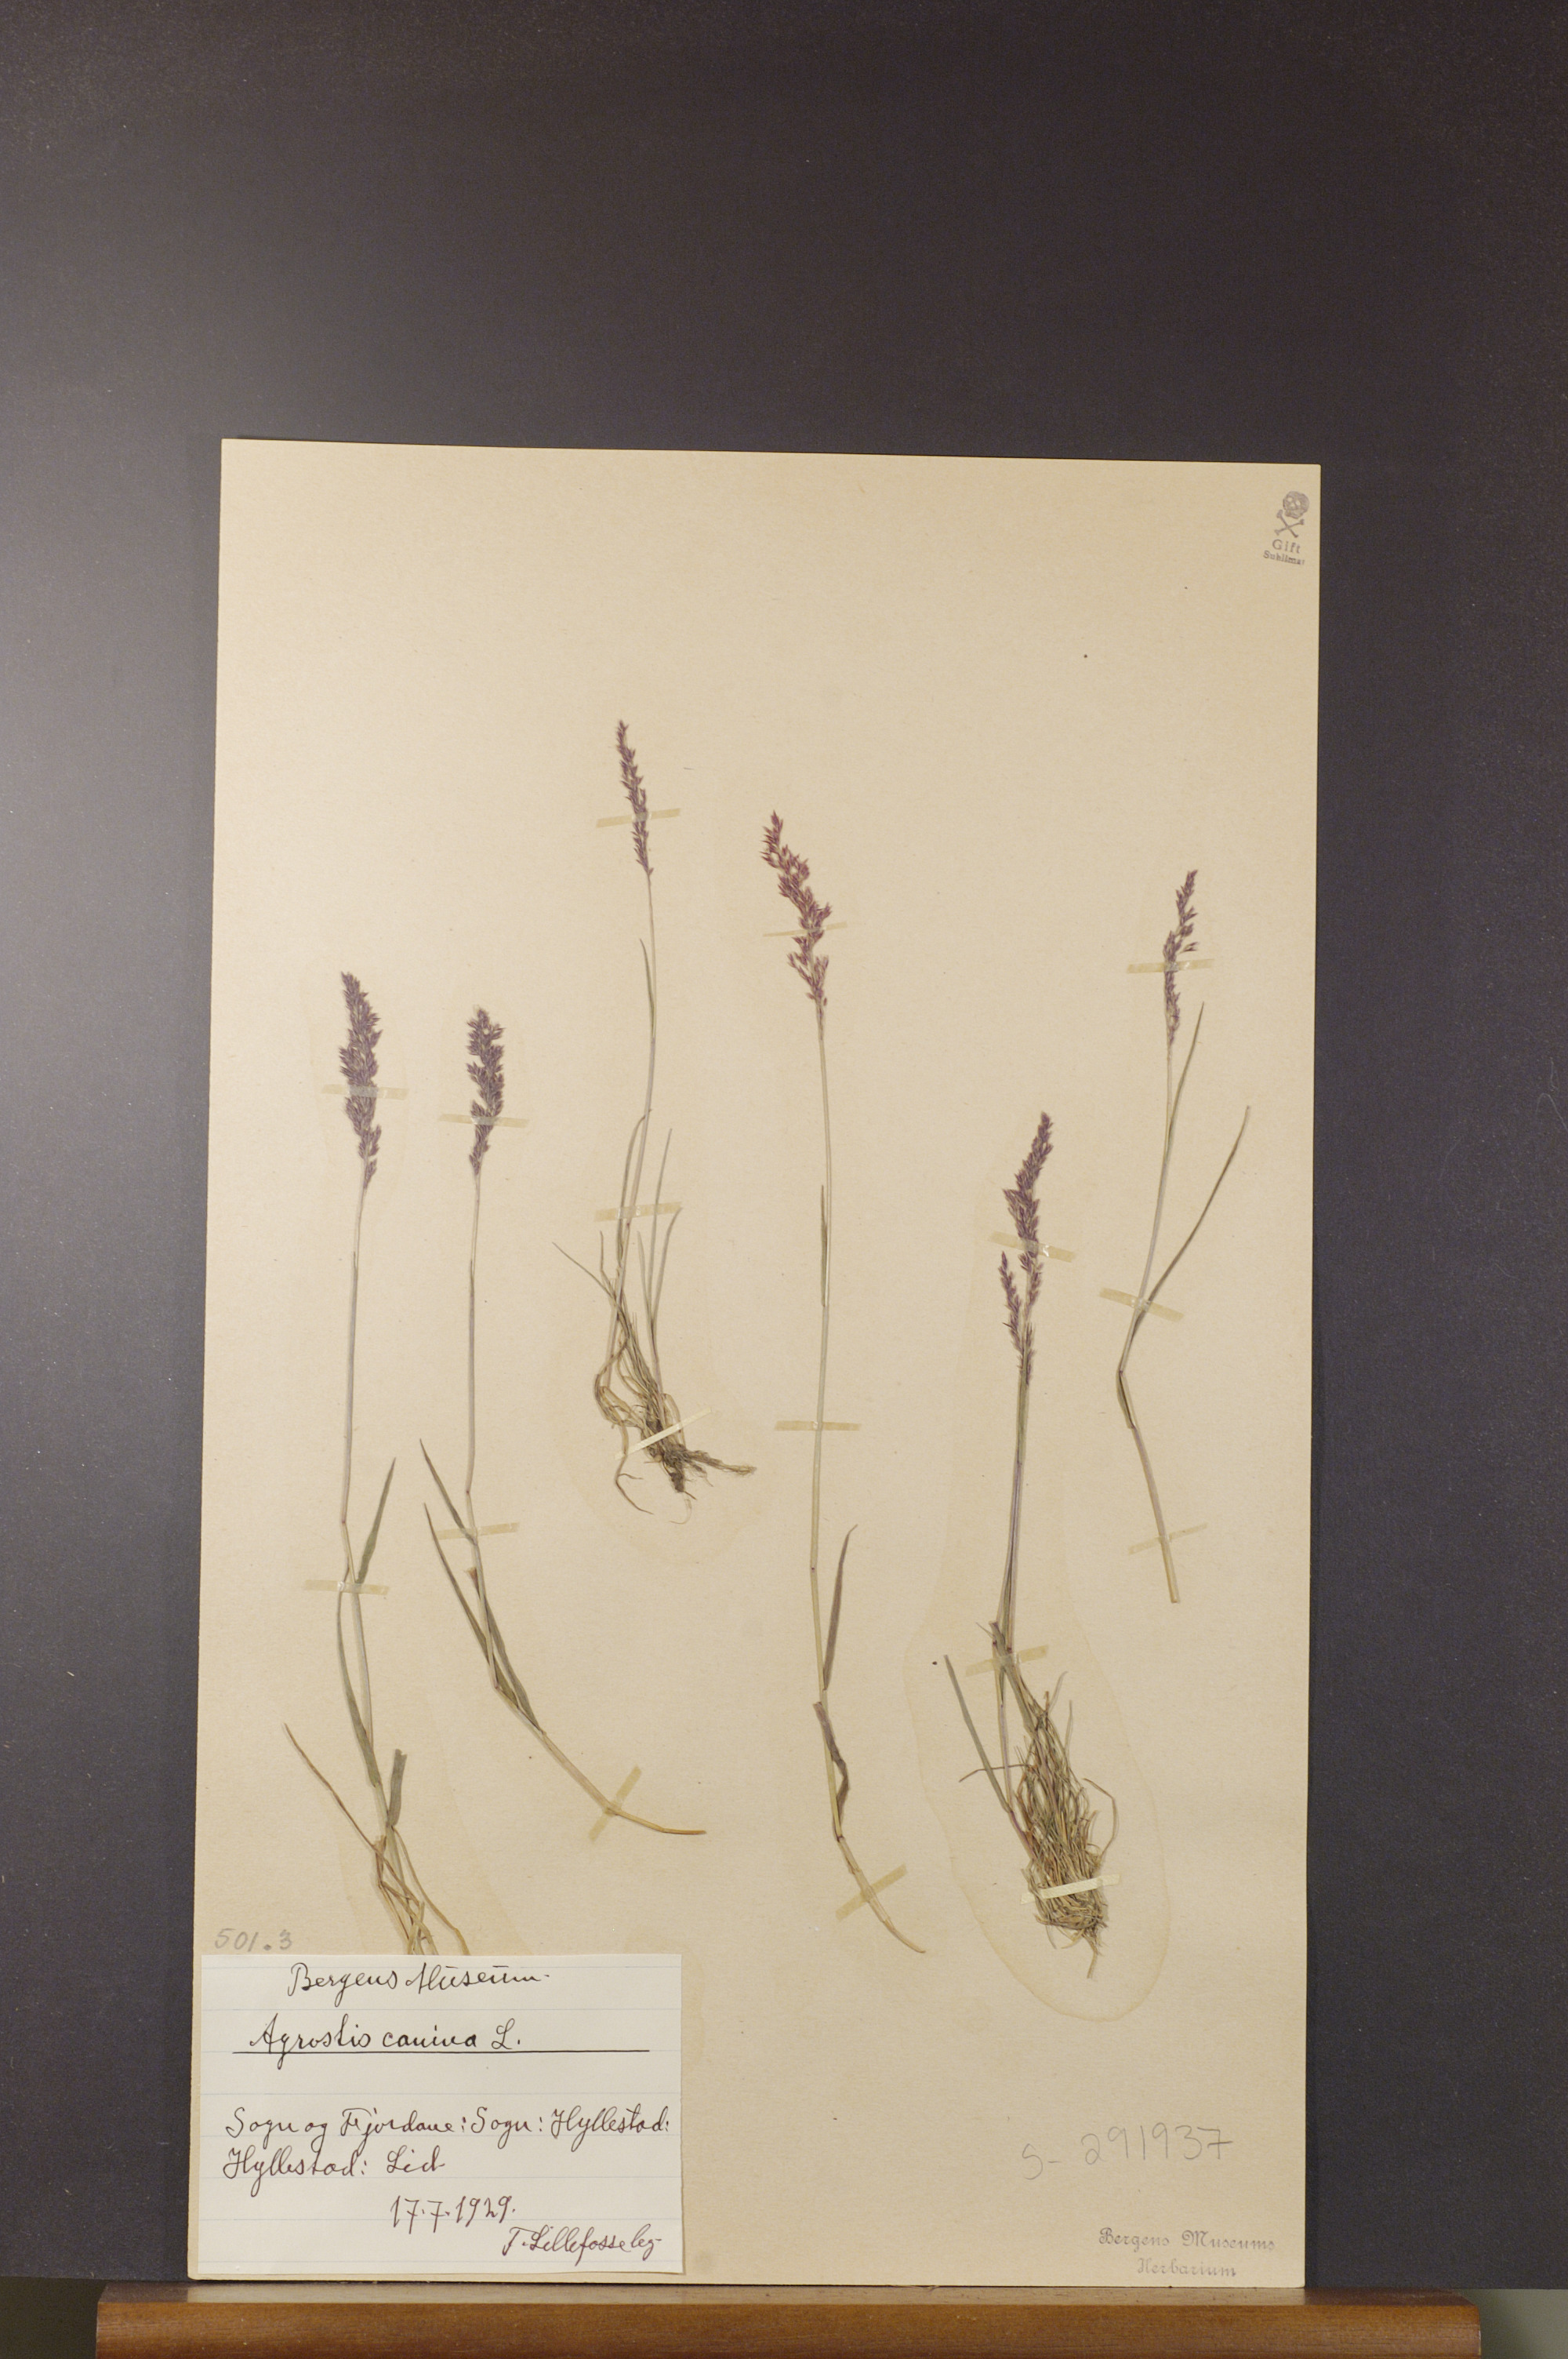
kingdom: Plantae
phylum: Tracheophyta
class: Liliopsida
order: Poales
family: Poaceae
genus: Agrostis
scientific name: Agrostis canina
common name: Velvet bent
